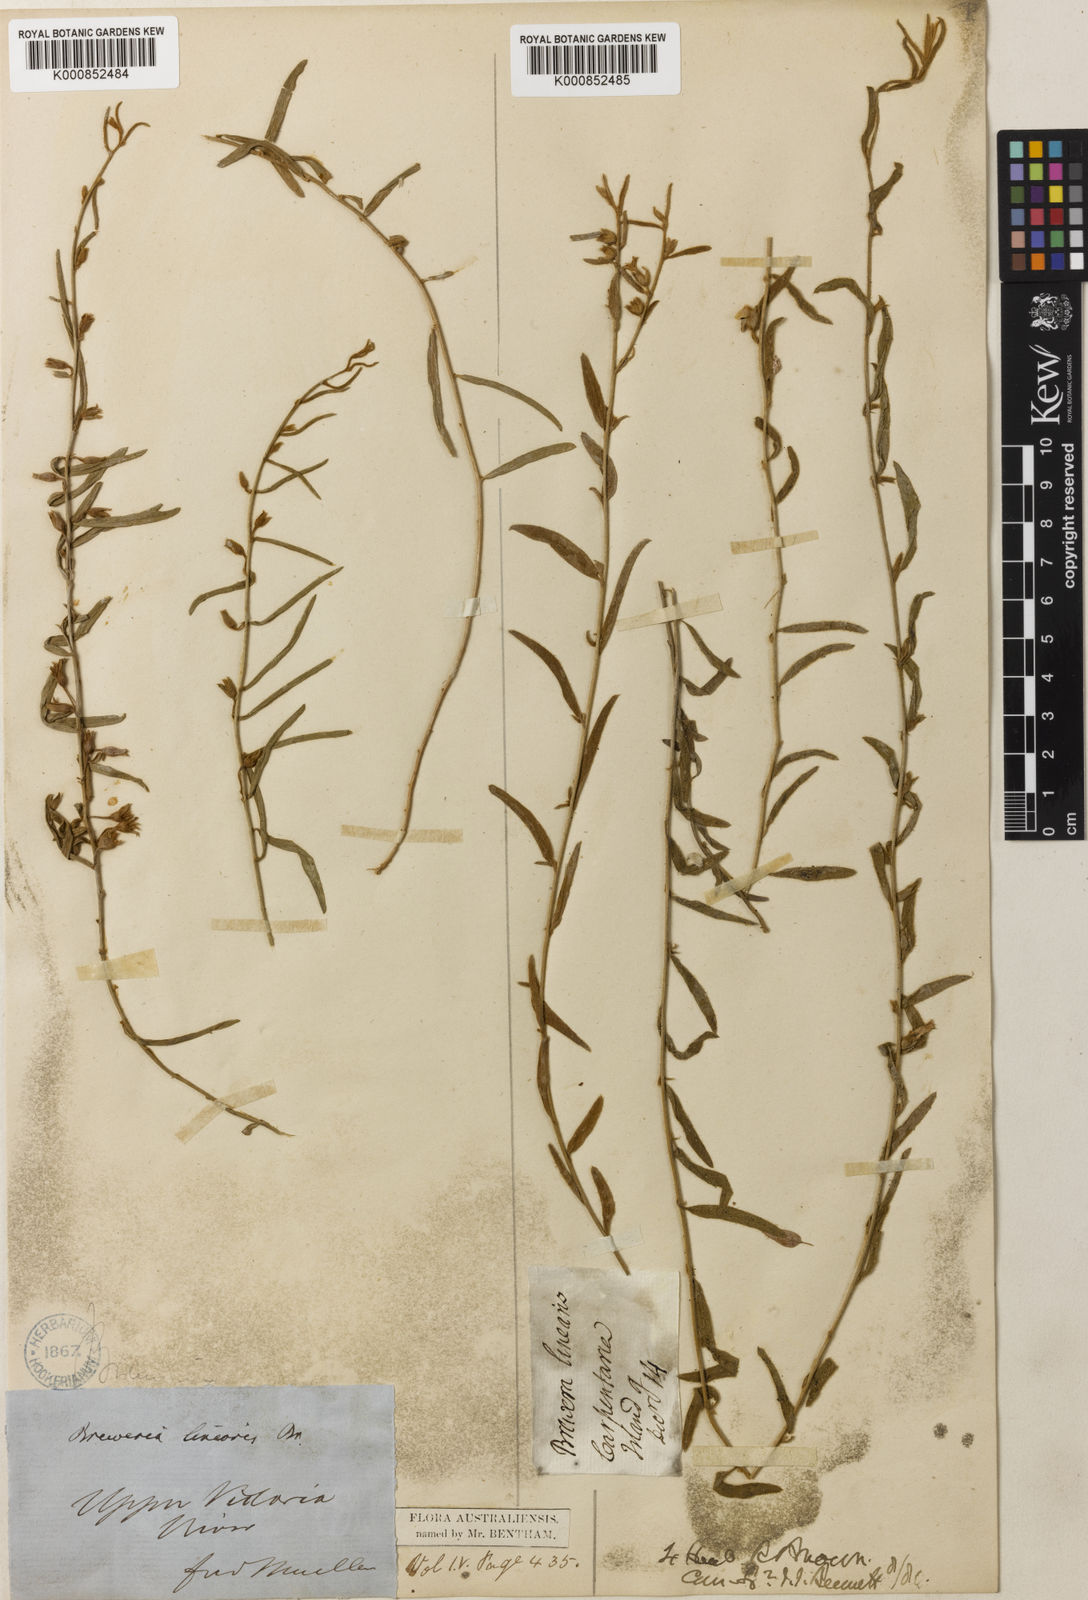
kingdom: Plantae
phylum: Tracheophyta
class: Magnoliopsida
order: Solanales
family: Convolvulaceae
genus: Bonamia
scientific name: Bonamia linearis
